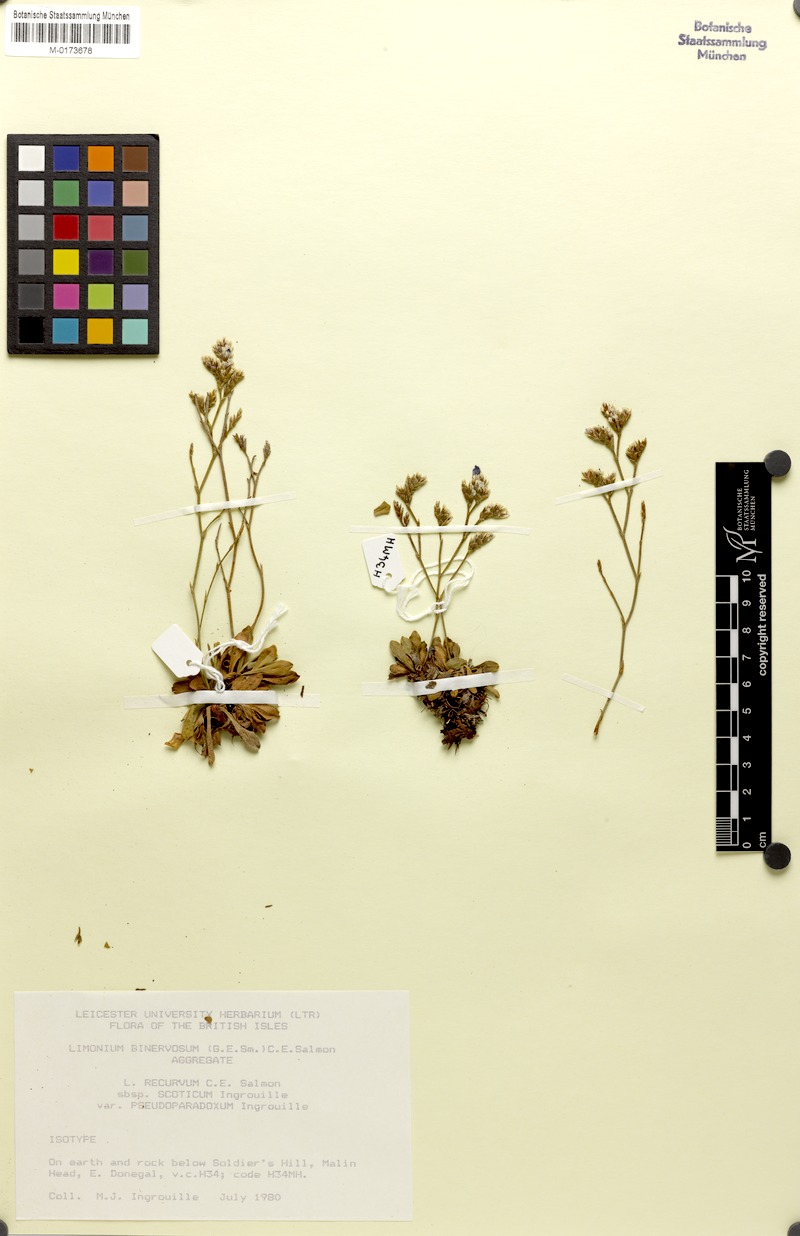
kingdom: Plantae
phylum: Tracheophyta
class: Magnoliopsida
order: Caryophyllales
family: Plumbaginaceae
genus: Limonium
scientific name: Limonium recurvum
